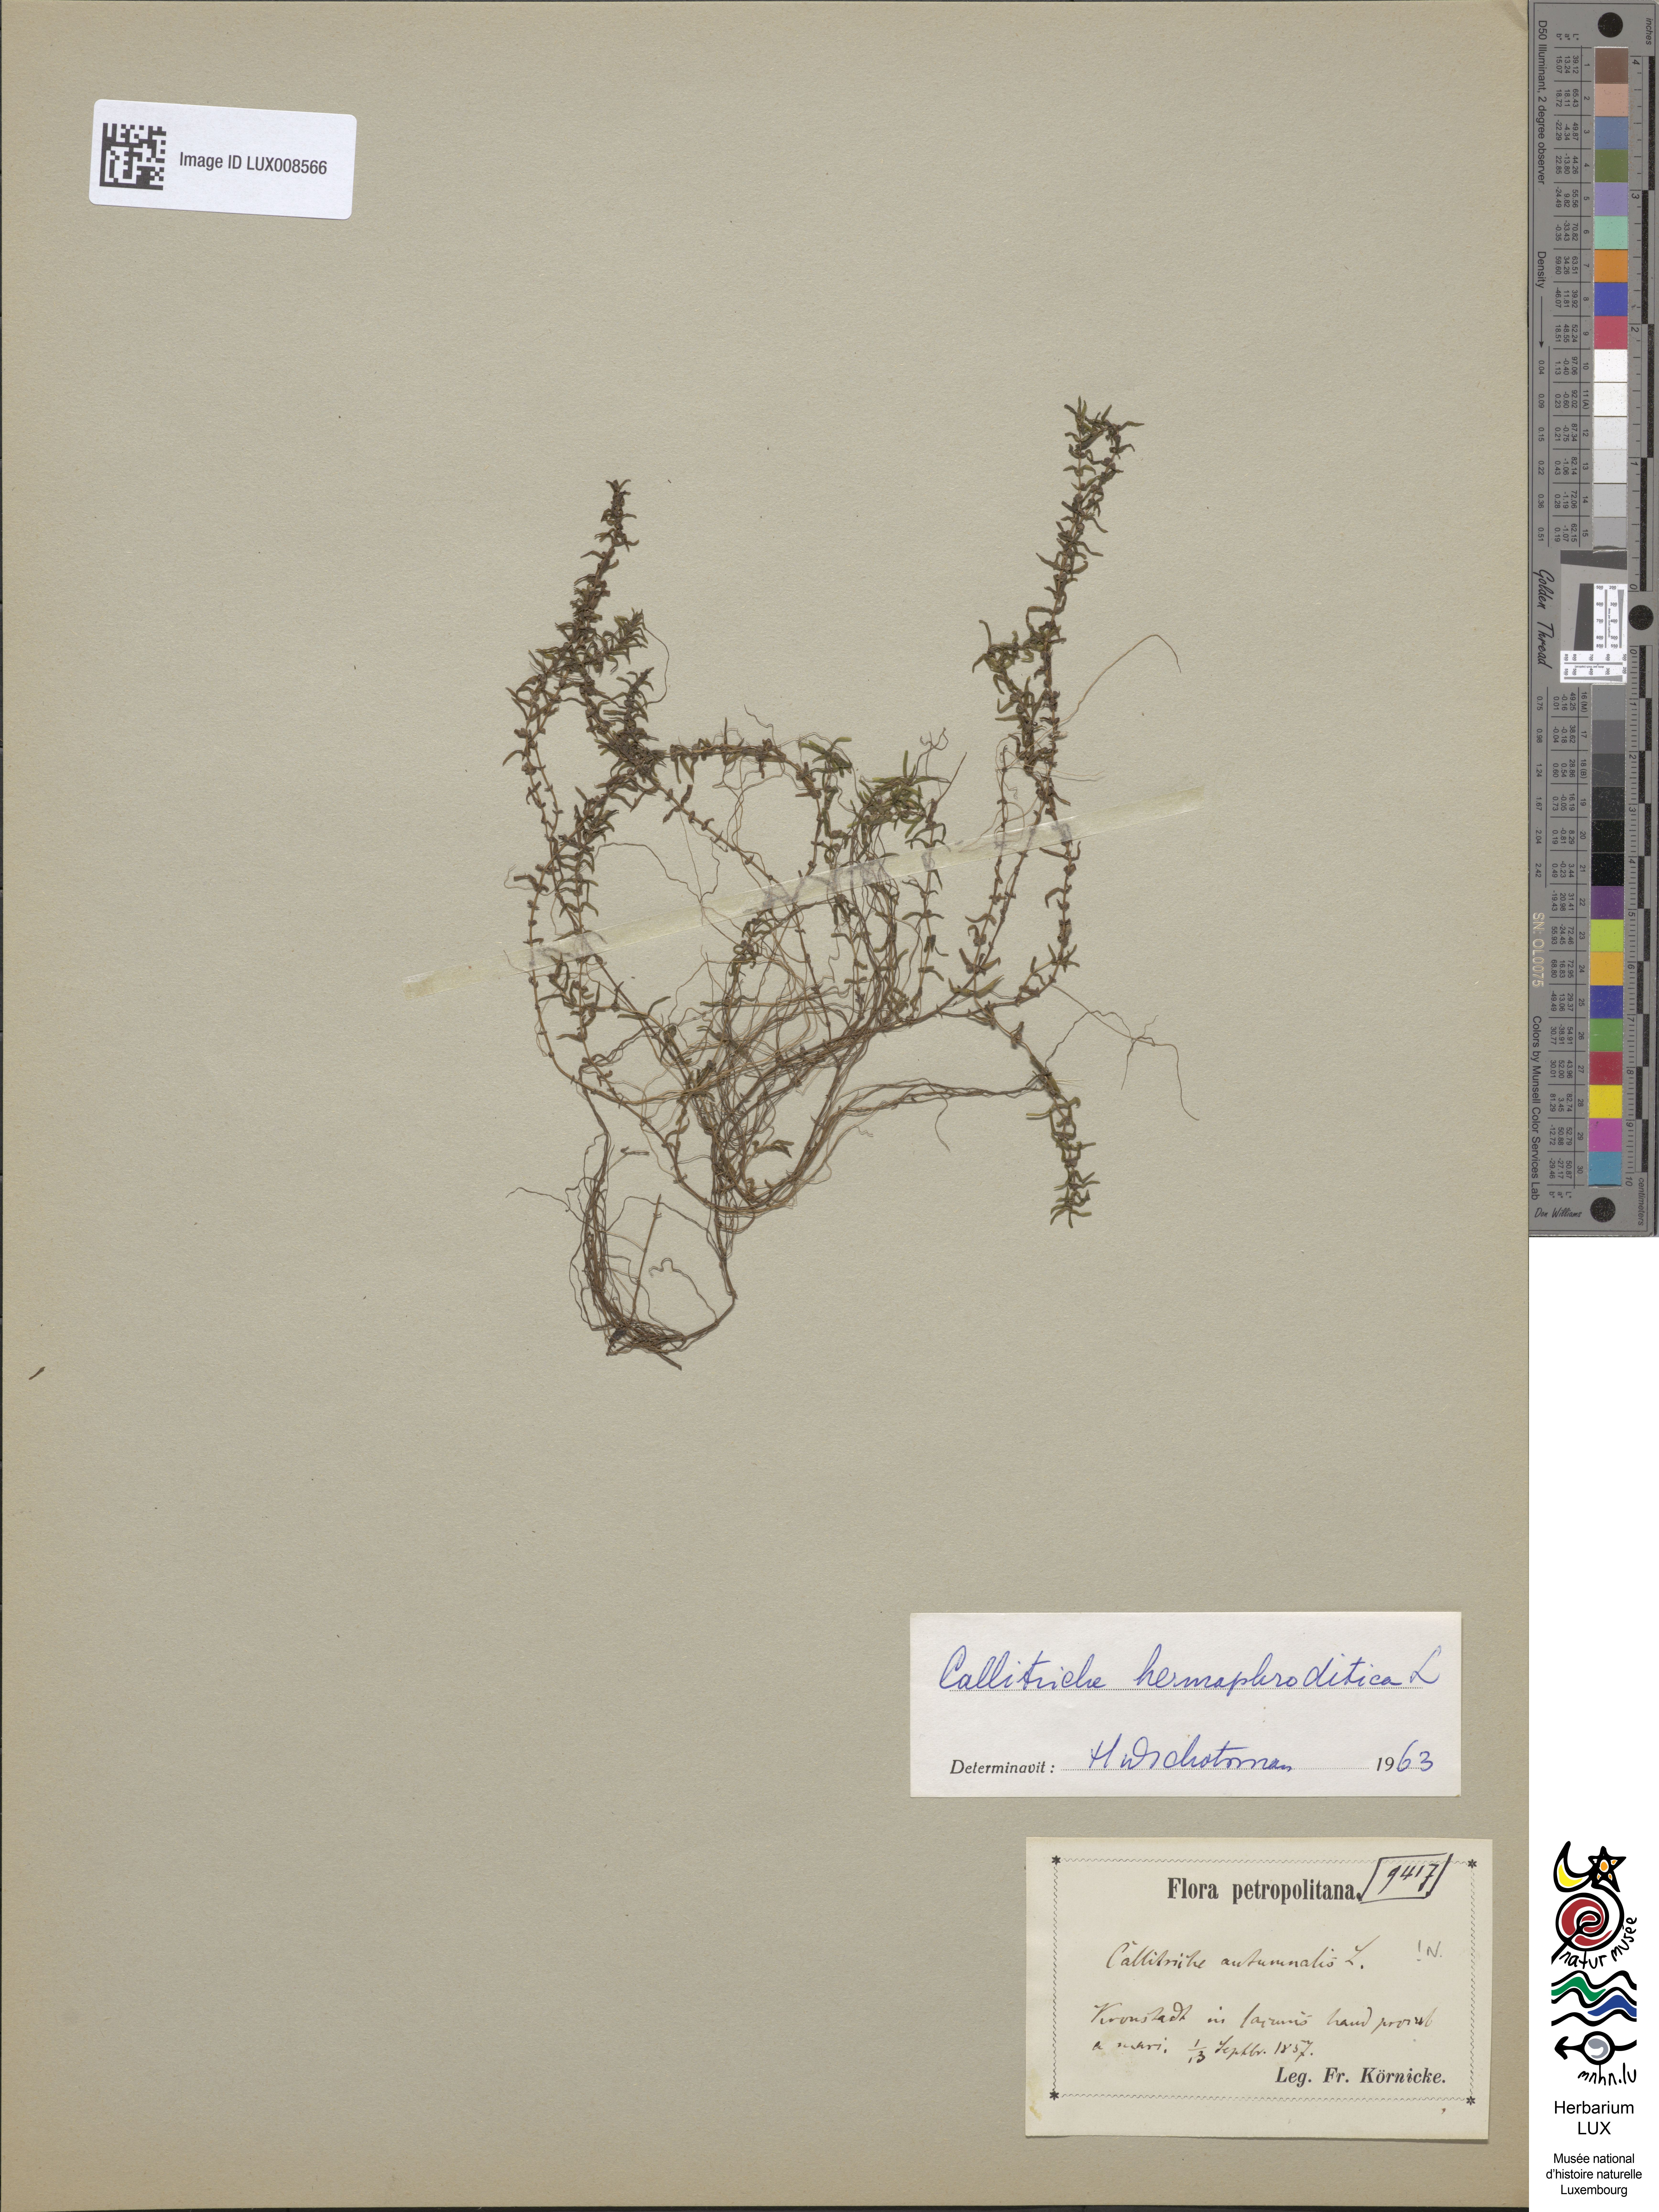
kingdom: Plantae
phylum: Tracheophyta
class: Magnoliopsida
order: Lamiales
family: Plantaginaceae
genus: Callitriche
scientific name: Callitriche hermaphroditica
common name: Autumnal water-starwort
